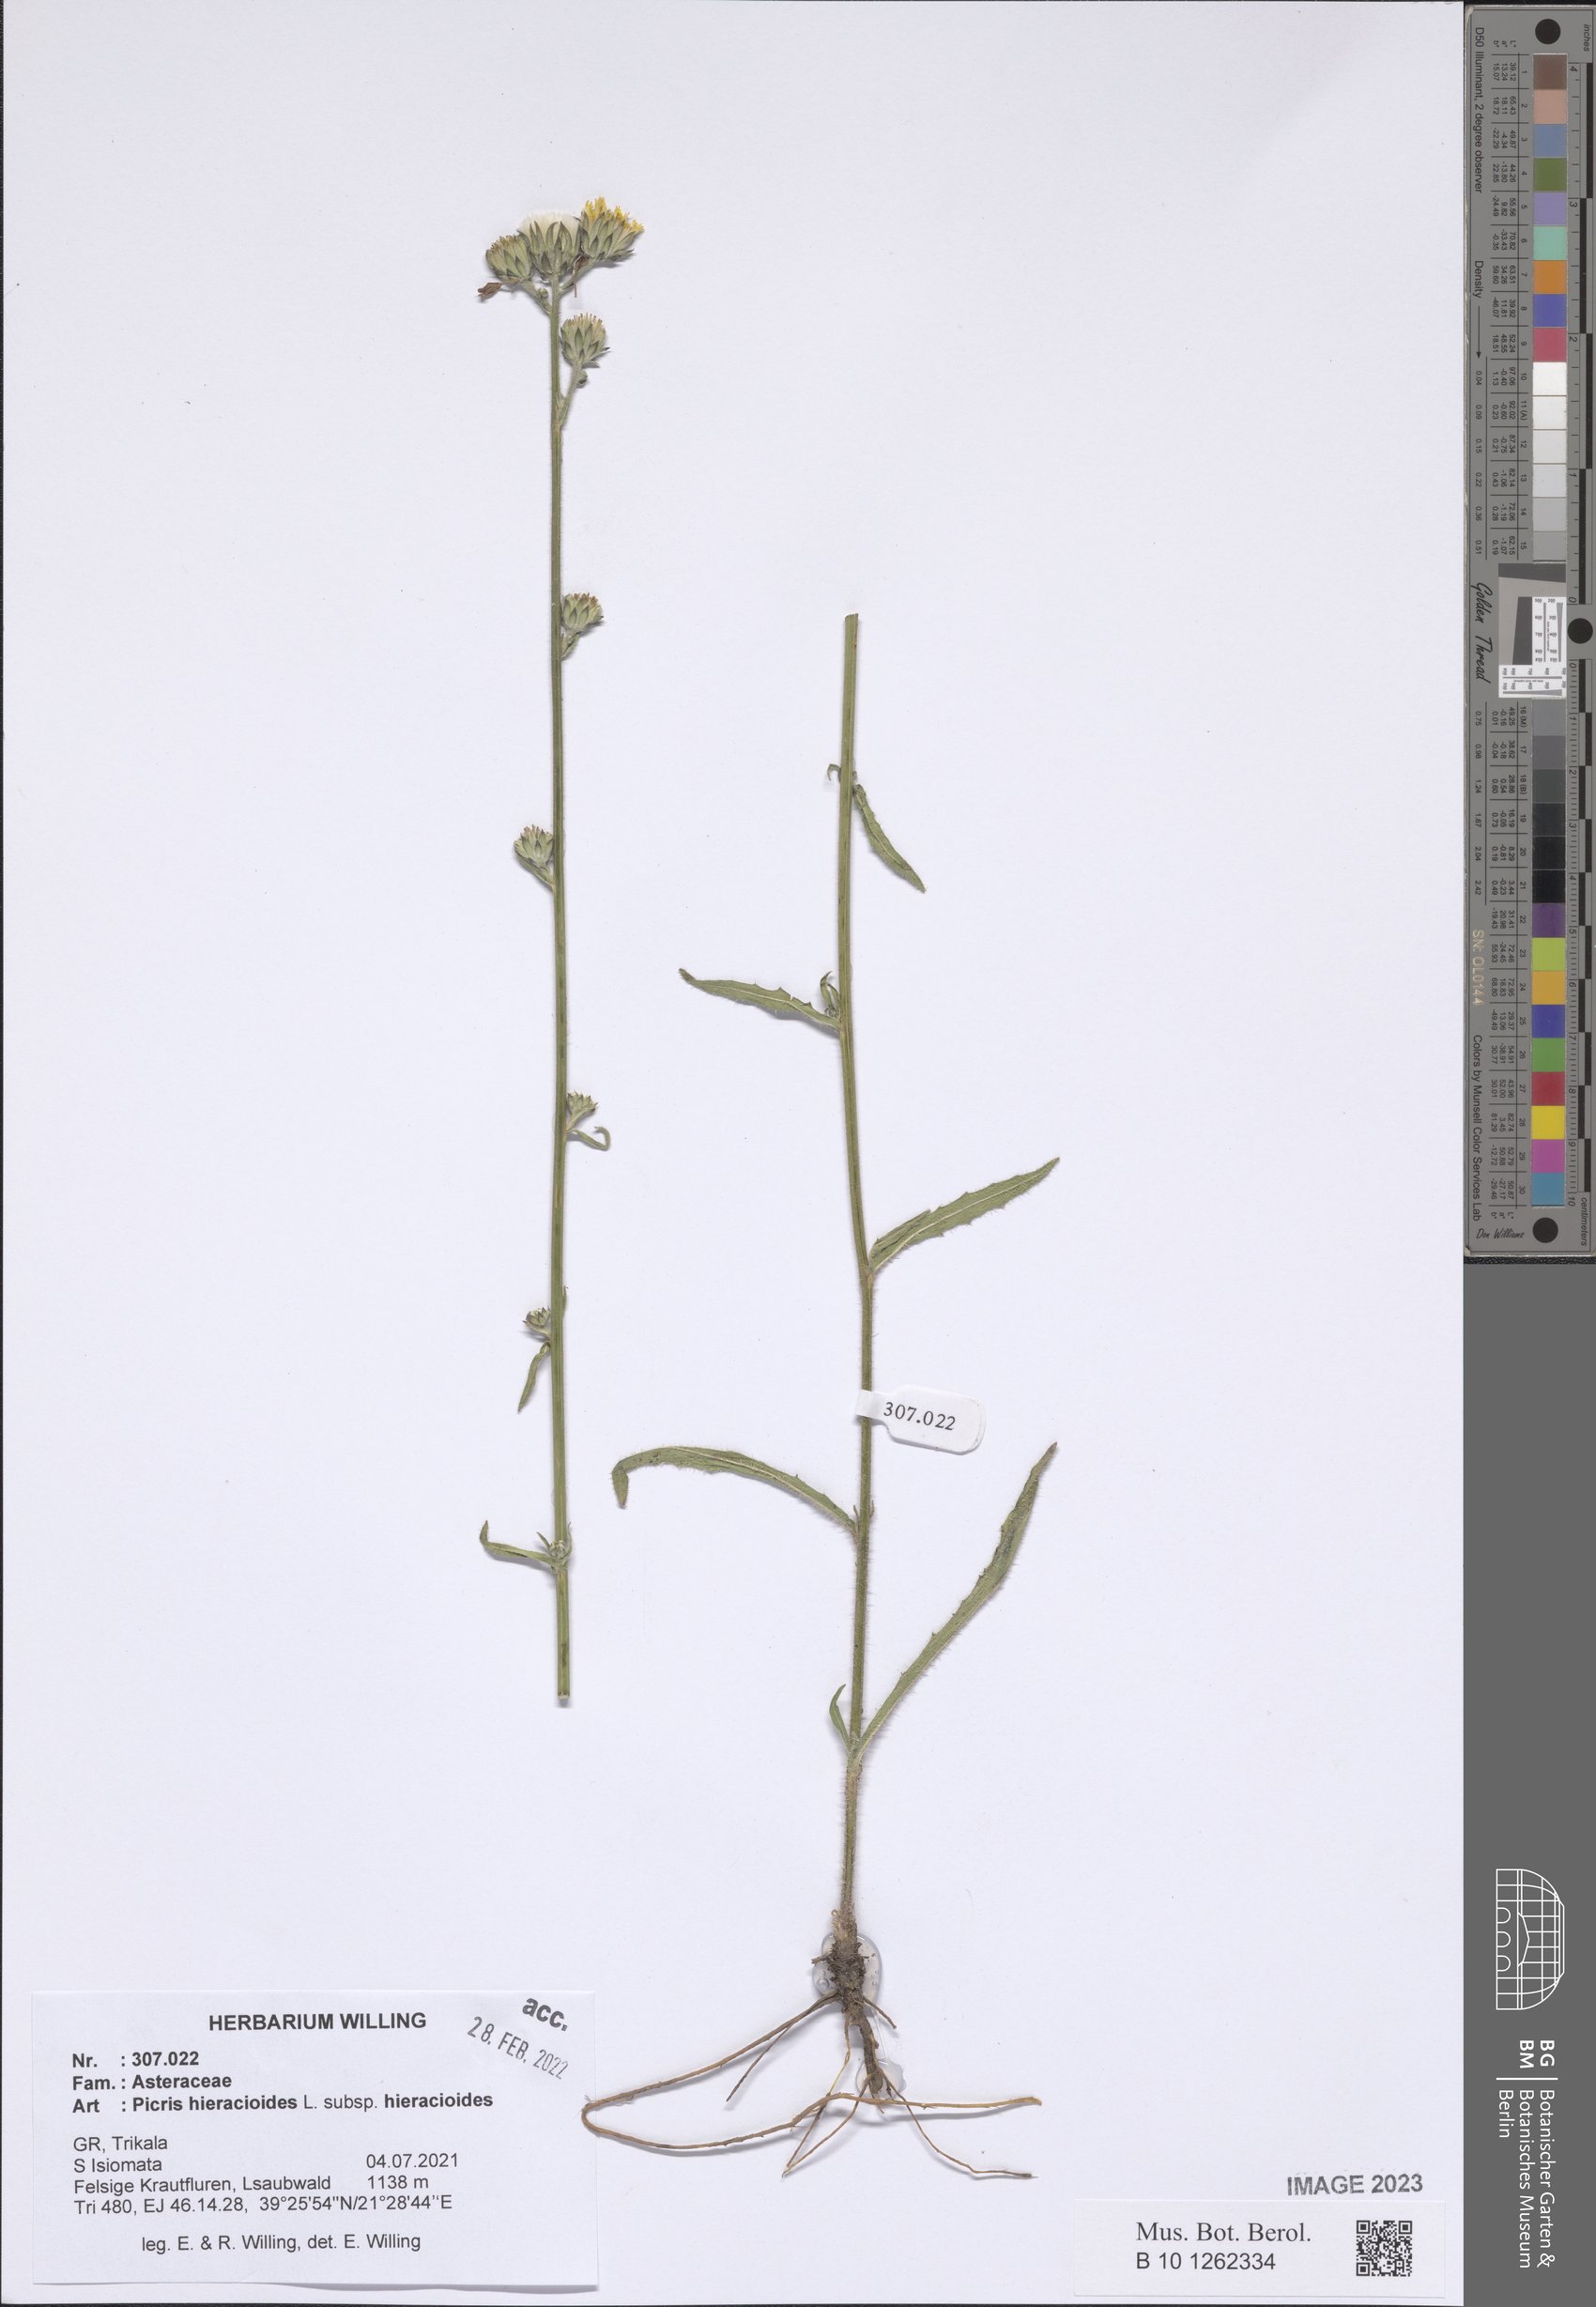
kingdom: Plantae
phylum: Tracheophyta
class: Magnoliopsida
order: Asterales
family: Asteraceae
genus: Picris
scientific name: Picris hieracioides
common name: Hawkweed oxtongue
